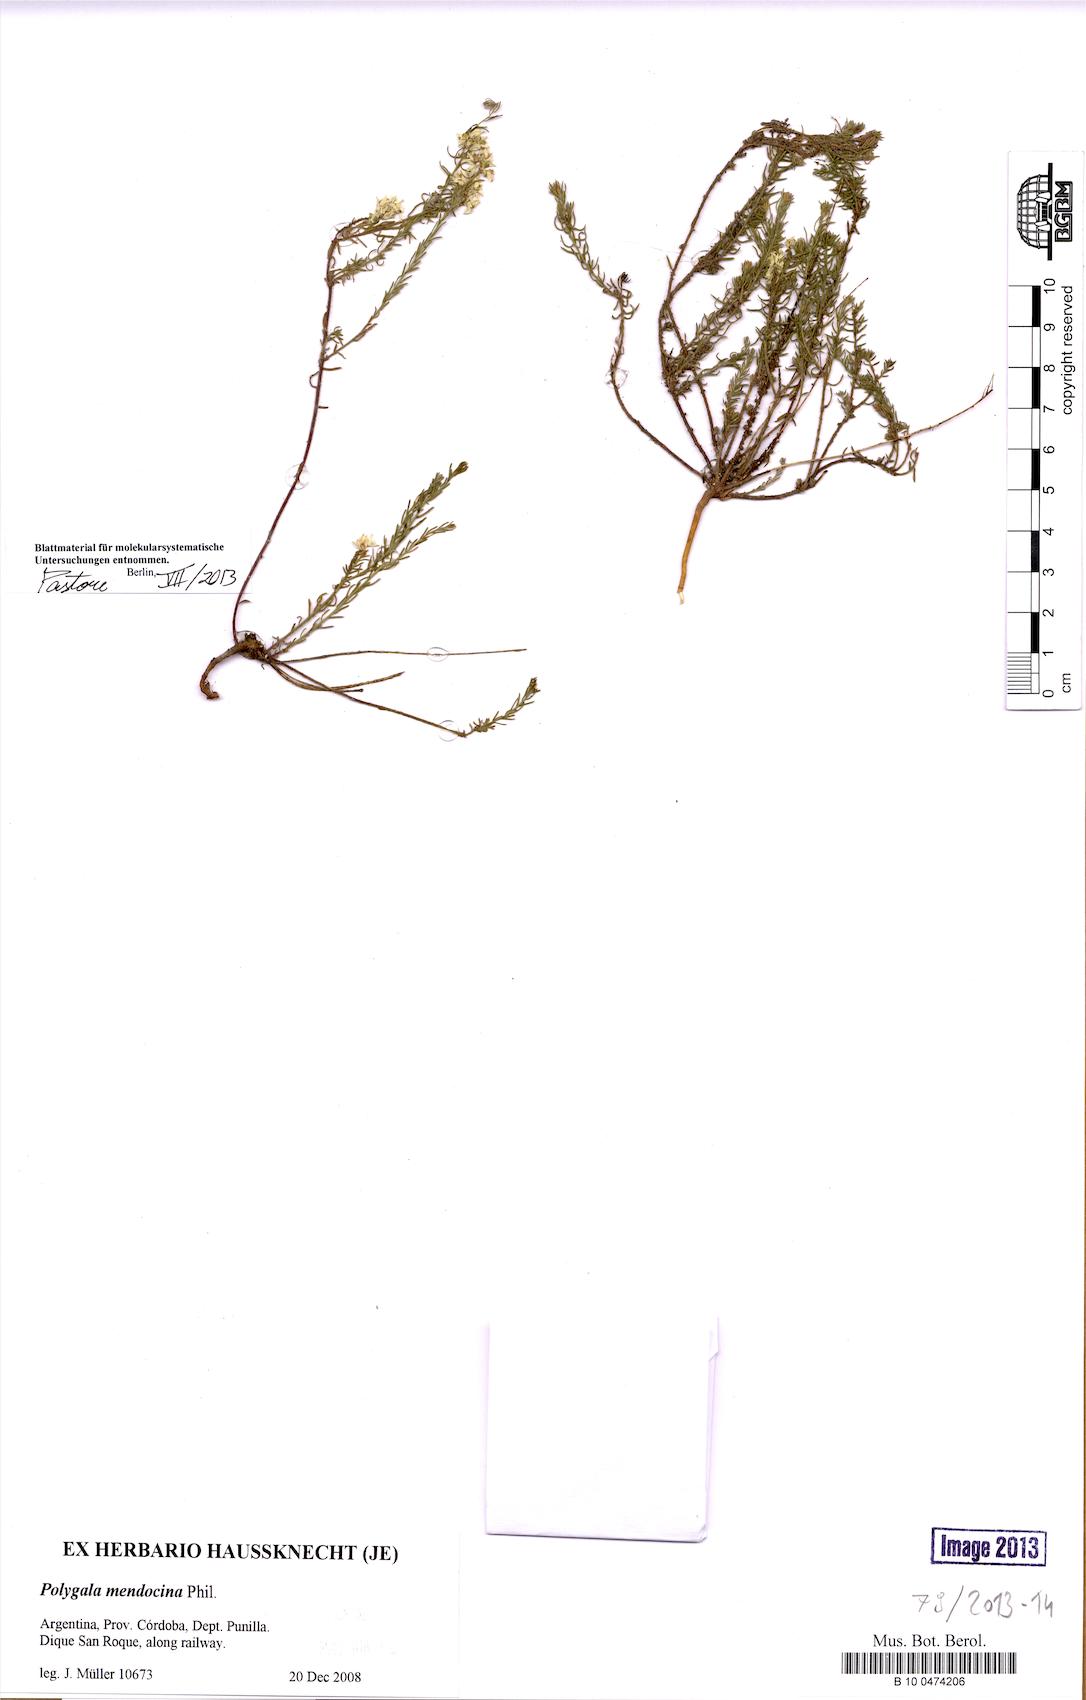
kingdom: Plantae
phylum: Tracheophyta
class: Magnoliopsida
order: Fabales
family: Polygalaceae
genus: Polygala
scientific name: Polygala subandina
